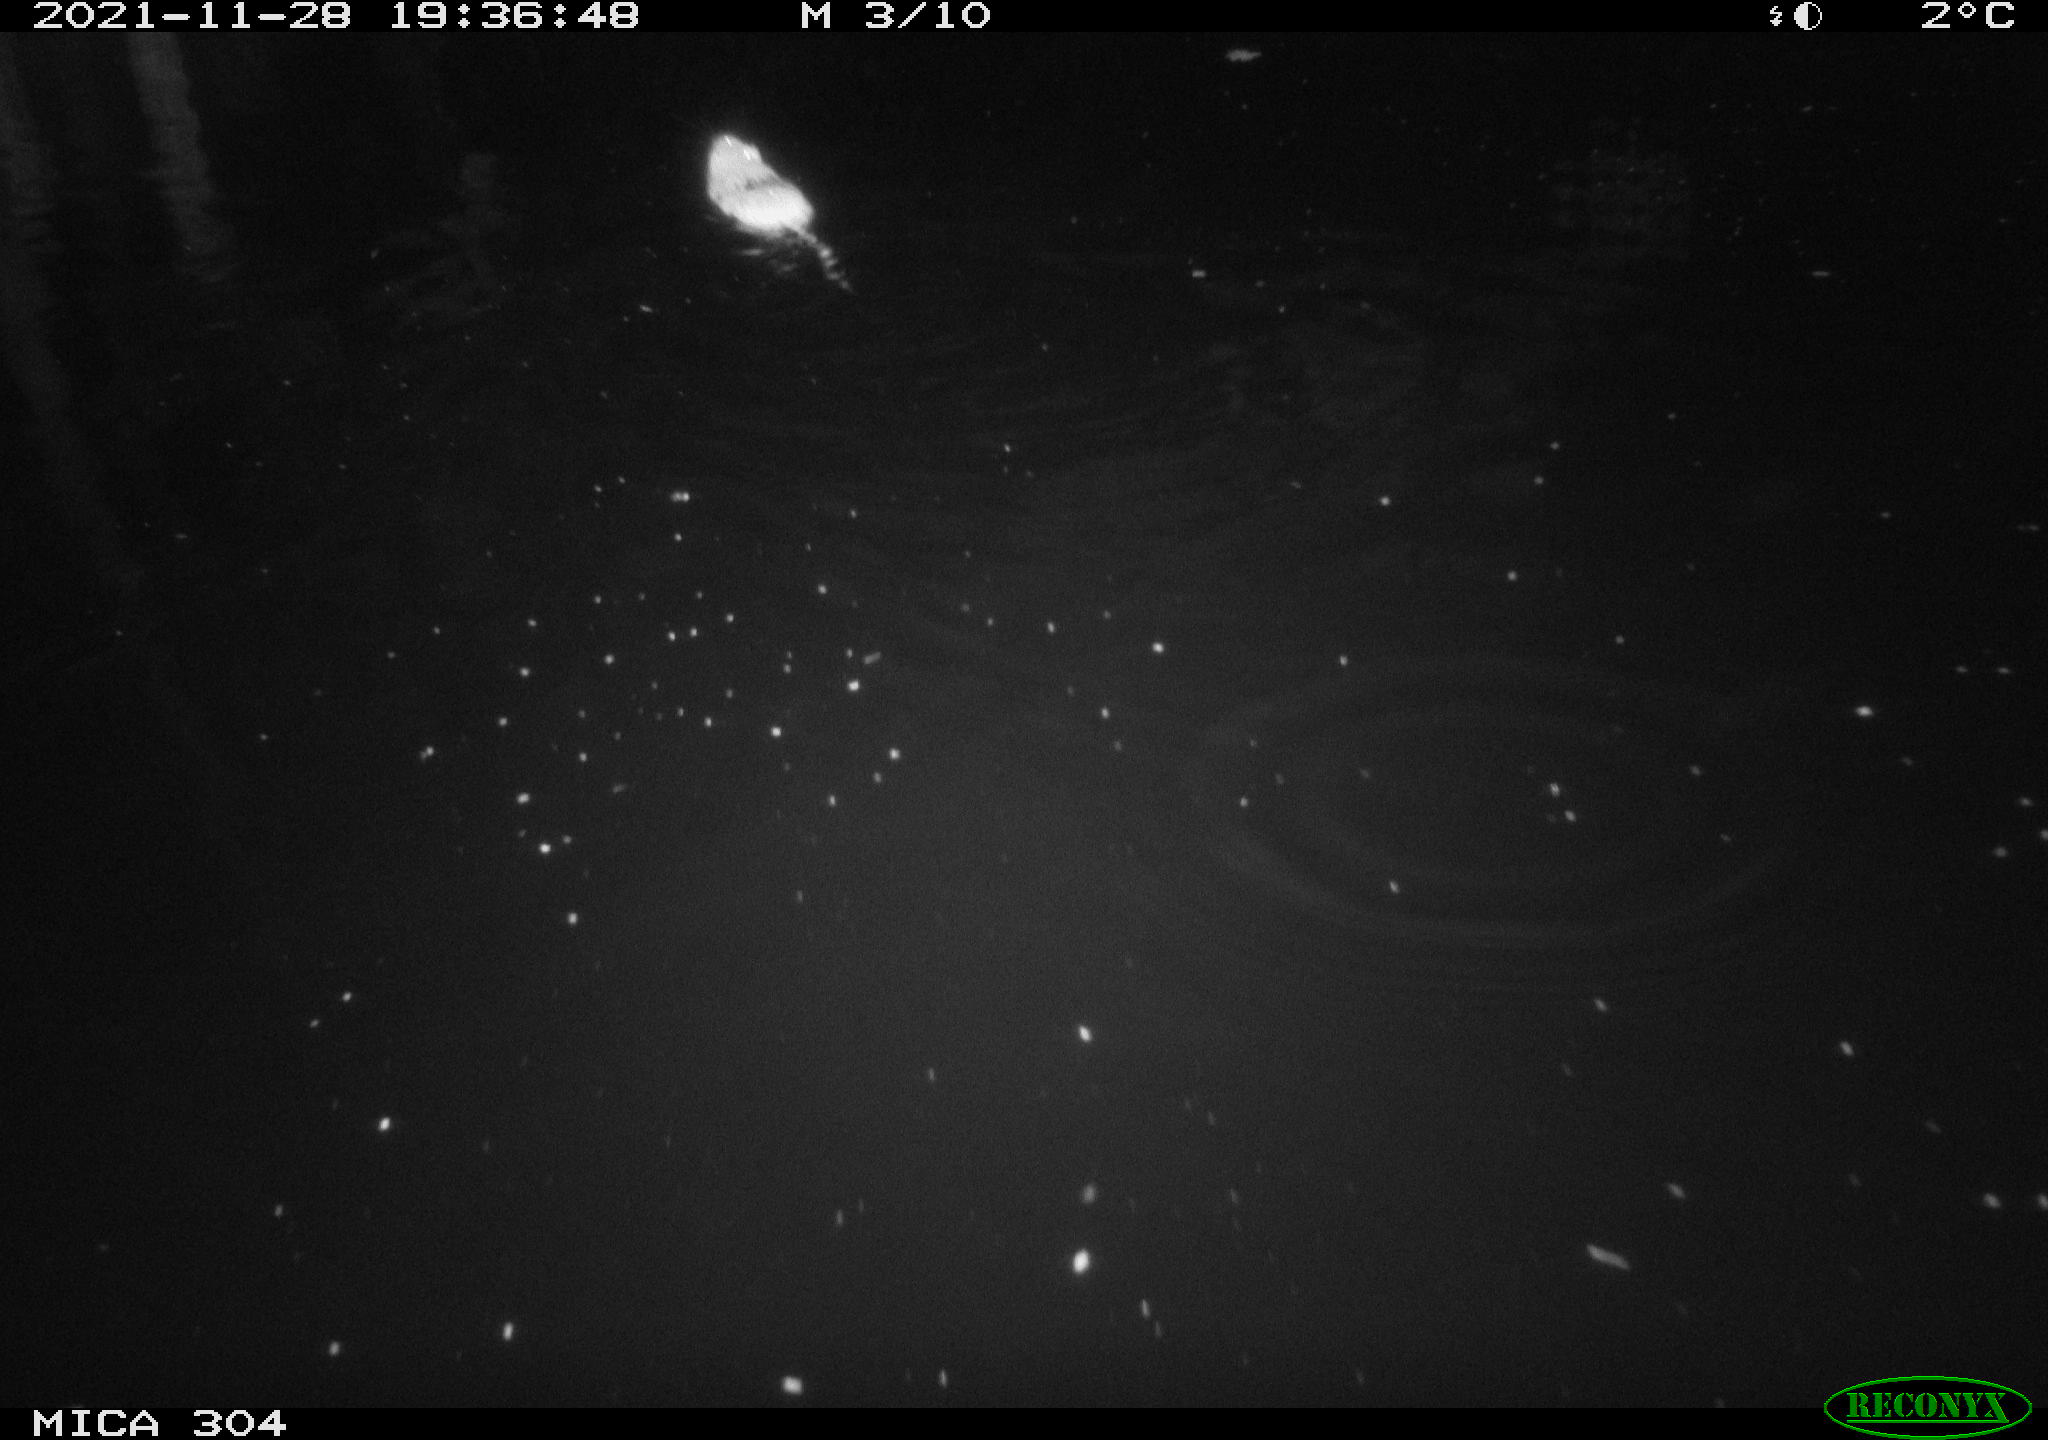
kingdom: Animalia
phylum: Chordata
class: Mammalia
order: Rodentia
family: Muridae
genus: Rattus
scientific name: Rattus norvegicus
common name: Brown rat
